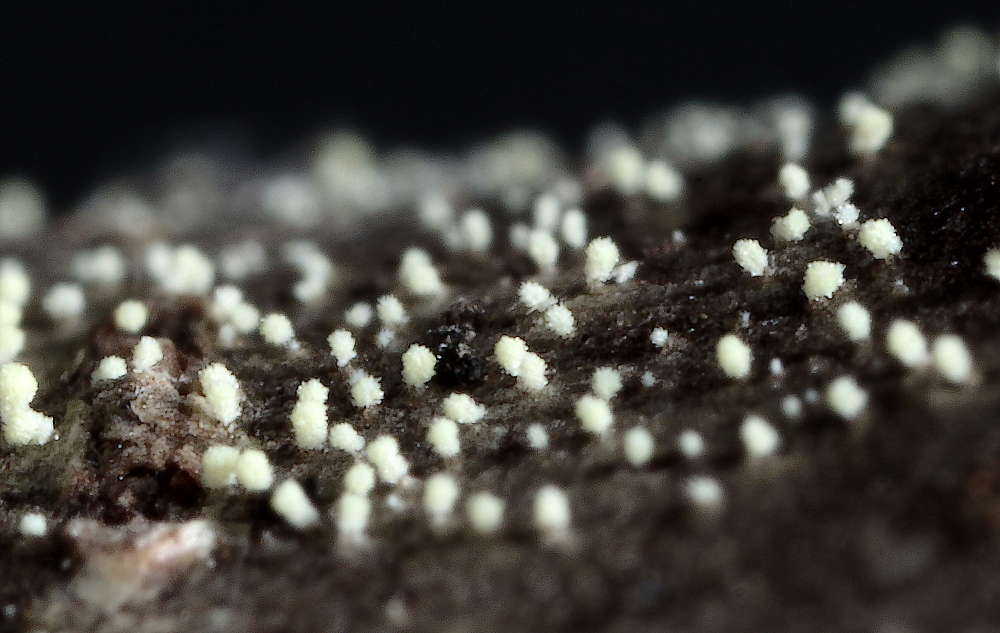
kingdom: Fungi
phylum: Ascomycota
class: Leotiomycetes
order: Helotiales
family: Hyaloscyphaceae
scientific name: Hyaloscyphaceae
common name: frynseskivefamilien
